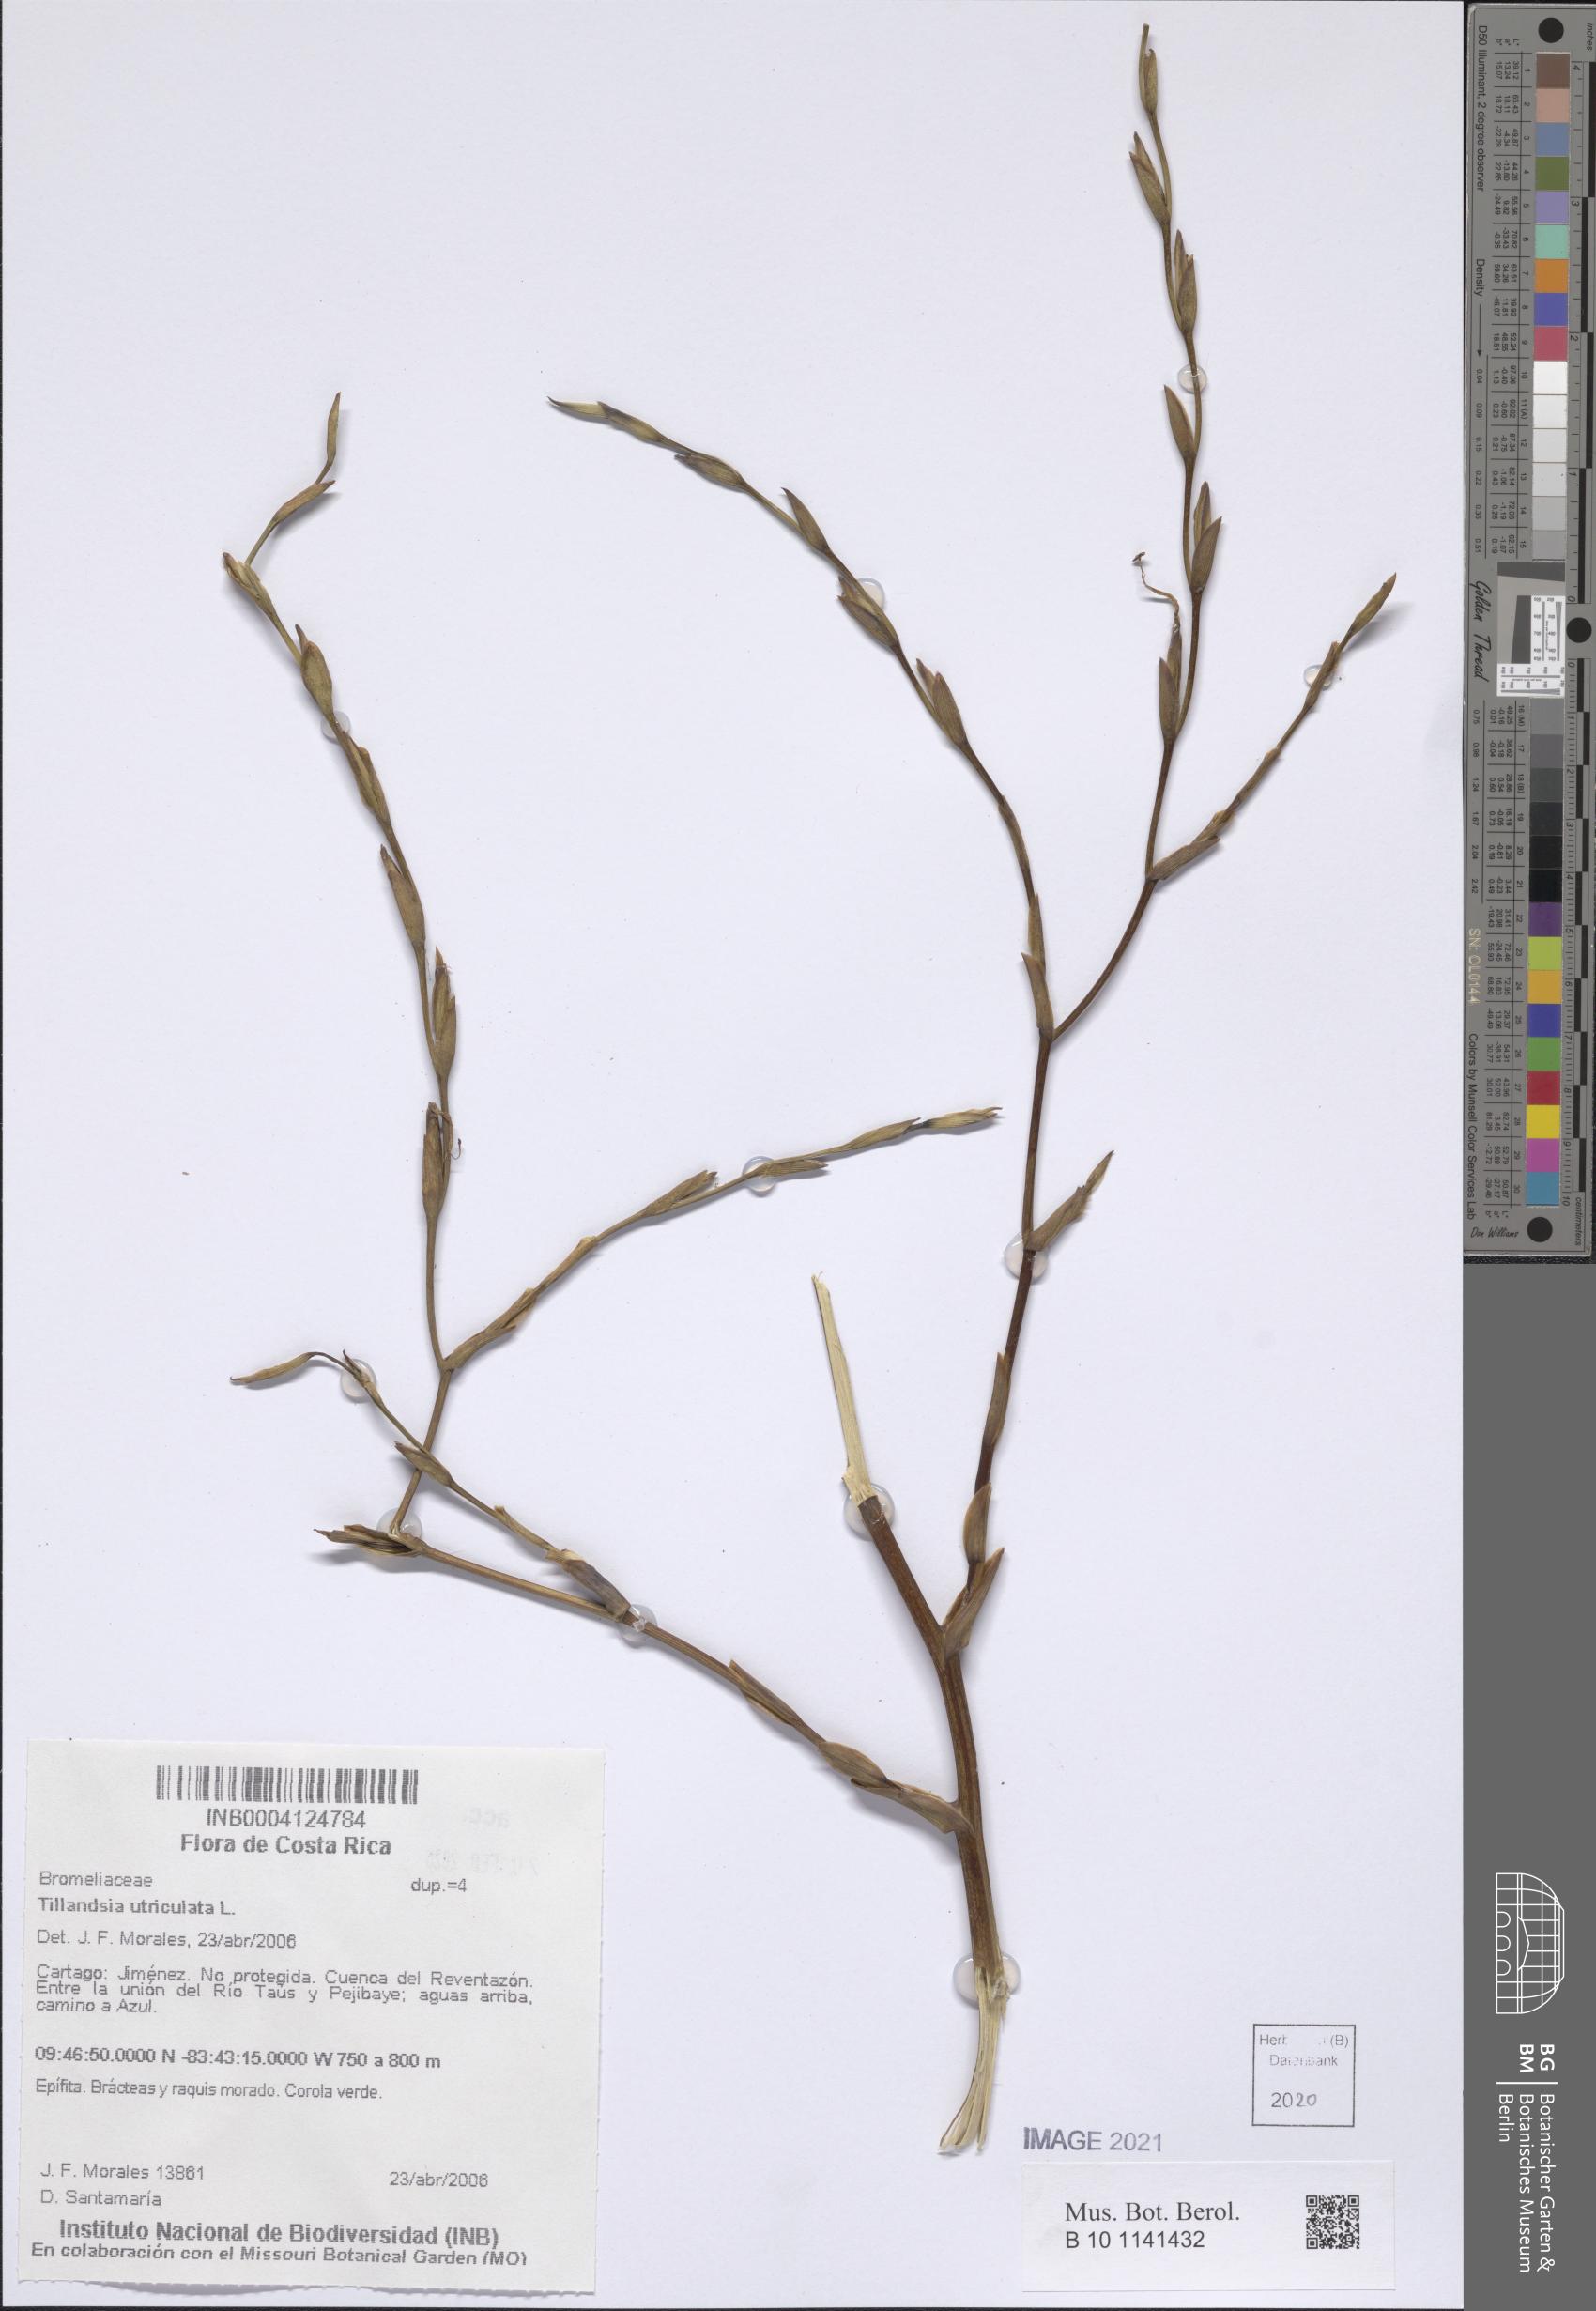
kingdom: Plantae
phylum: Tracheophyta
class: Liliopsida
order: Poales
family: Bromeliaceae
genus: Tillandsia
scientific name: Tillandsia utriculata
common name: Wild pine
